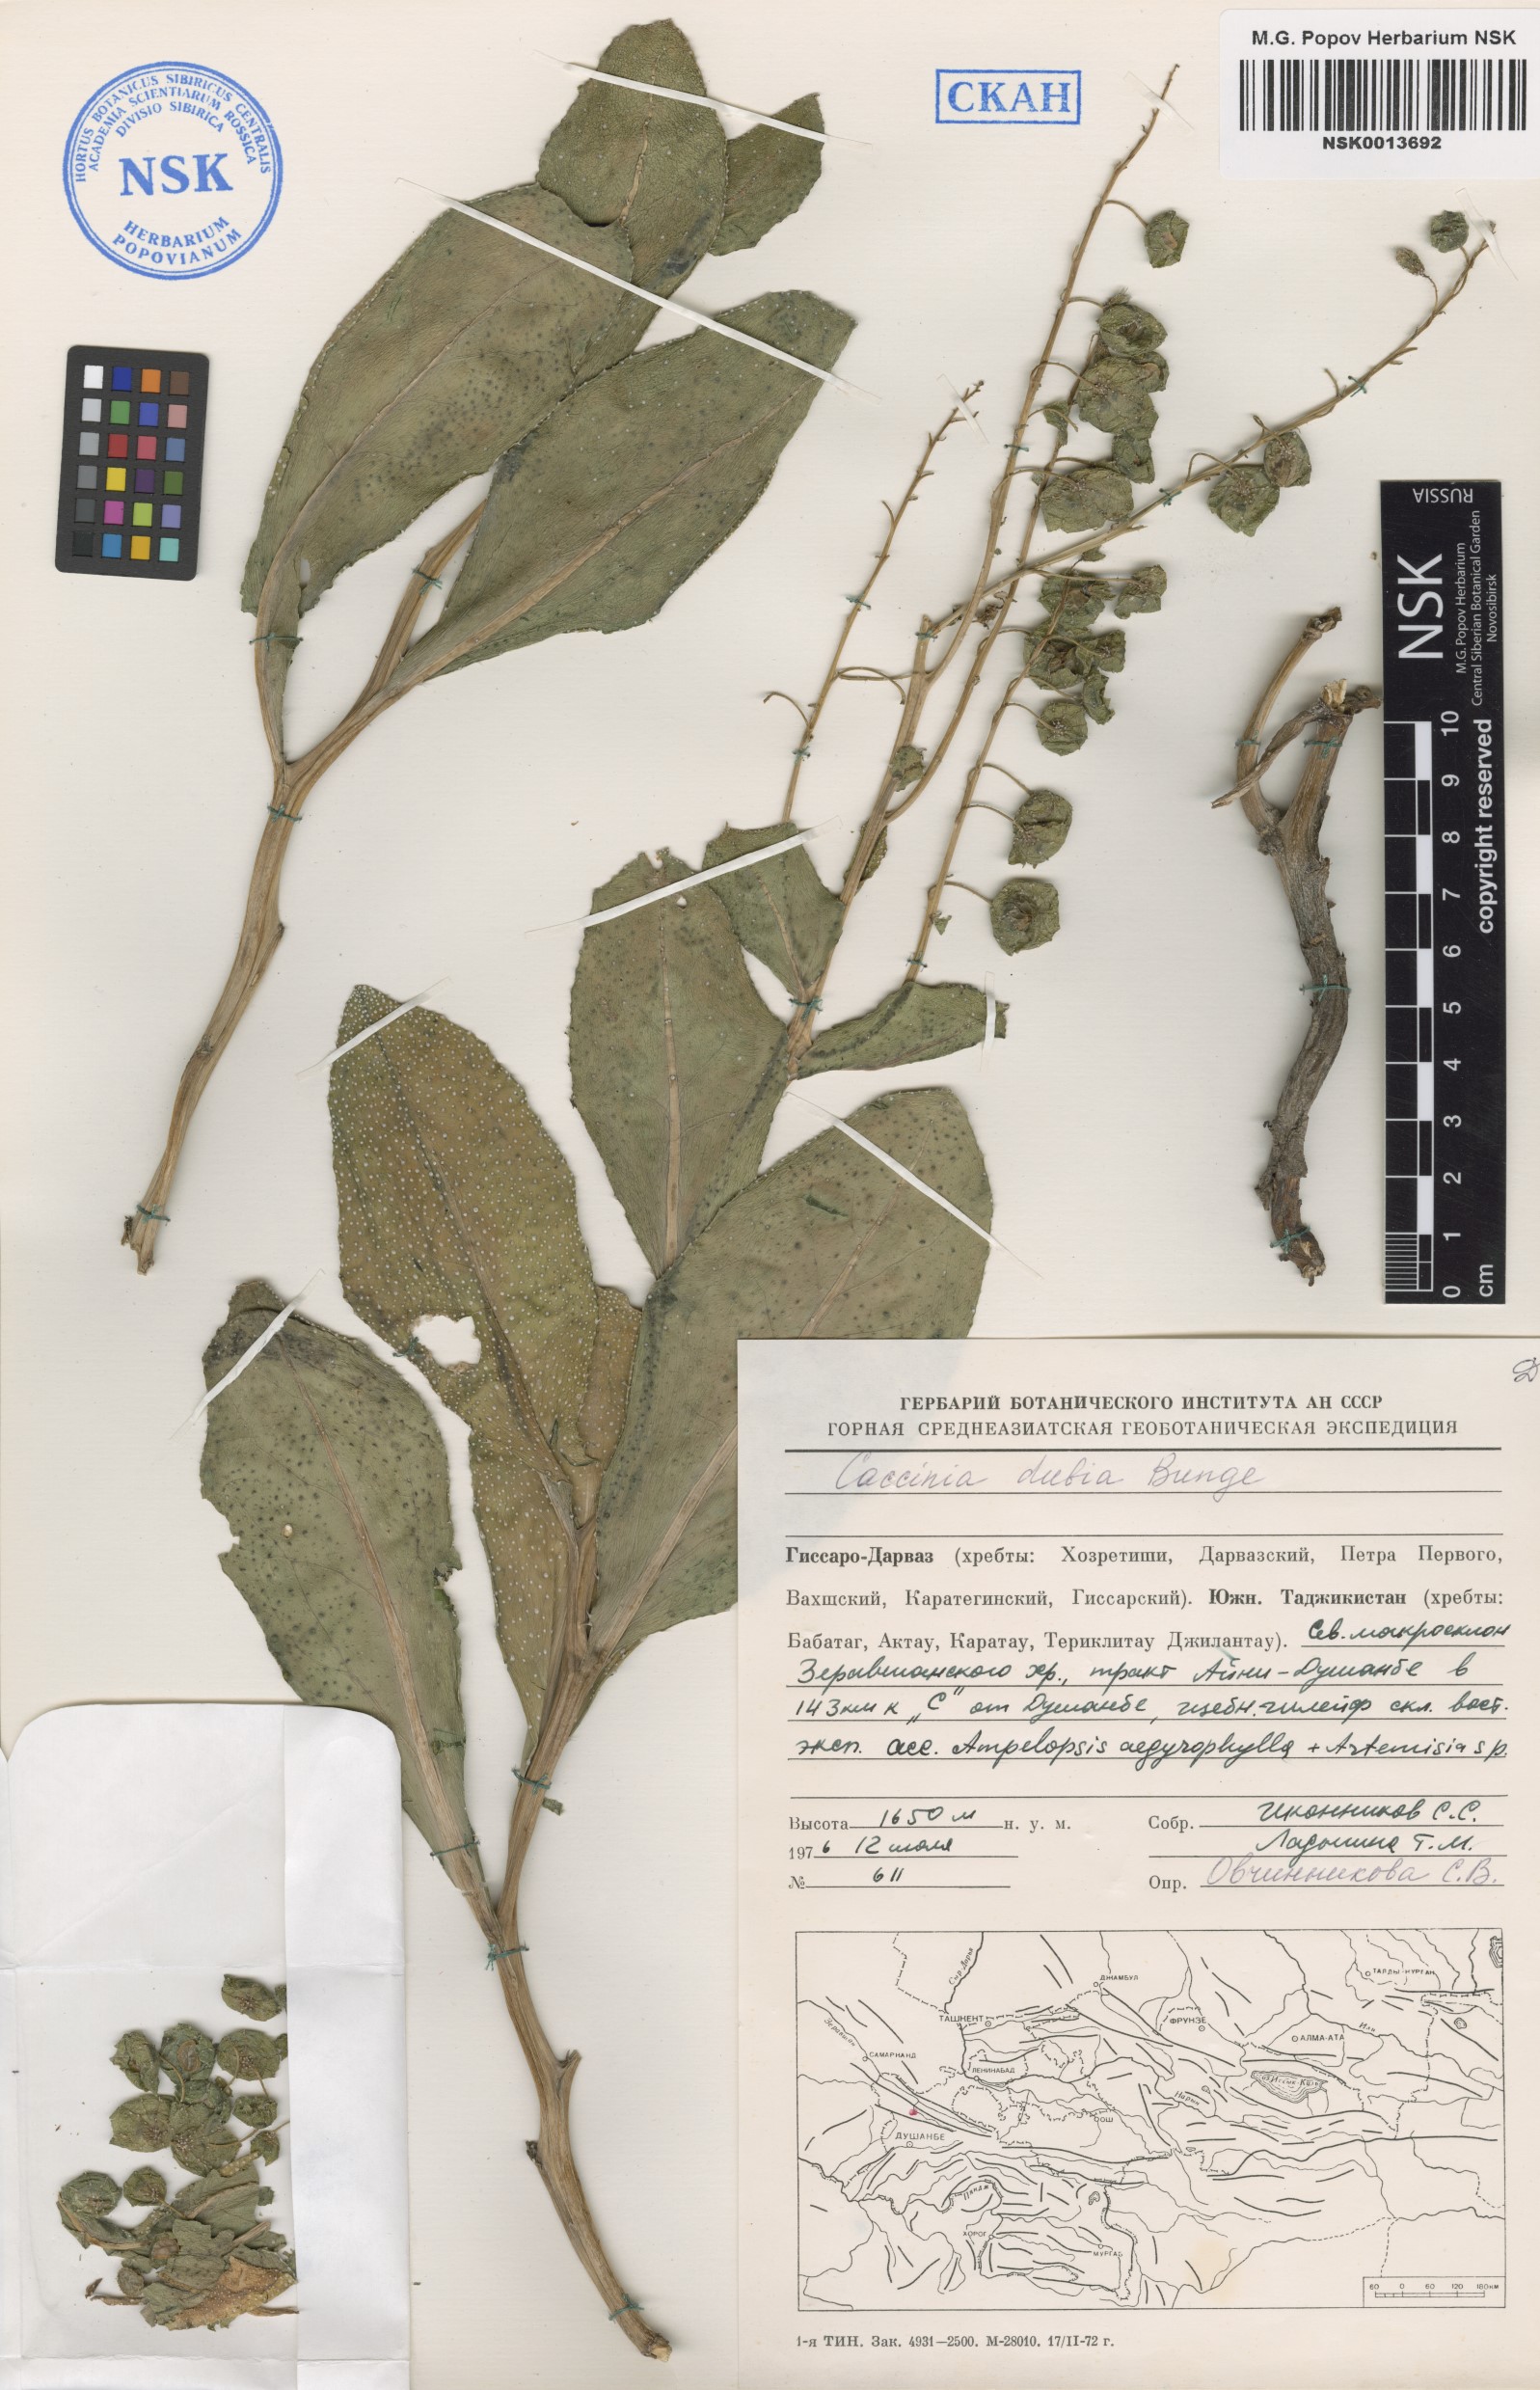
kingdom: Plantae
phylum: Tracheophyta
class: Magnoliopsida
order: Boraginales
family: Boraginaceae
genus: Caccinia
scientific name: Caccinia dubia
